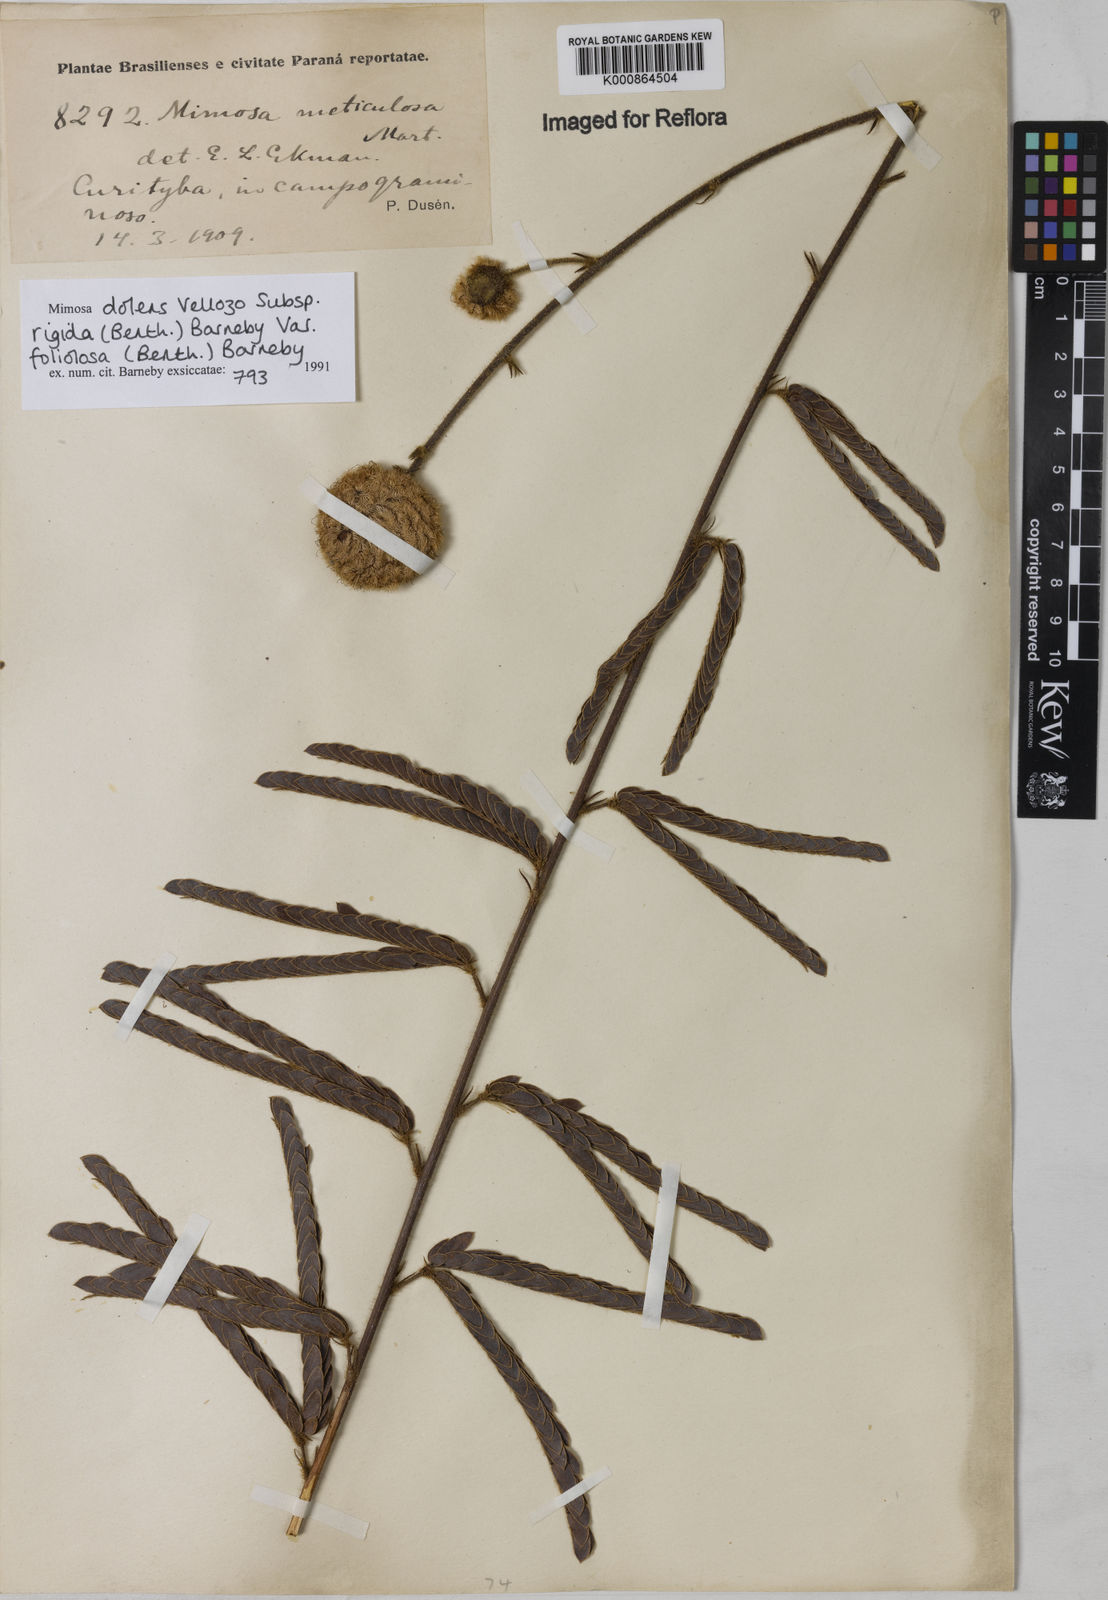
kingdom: Plantae
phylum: Tracheophyta
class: Magnoliopsida
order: Fabales
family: Fabaceae
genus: Mimosa
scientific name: Mimosa dolens
